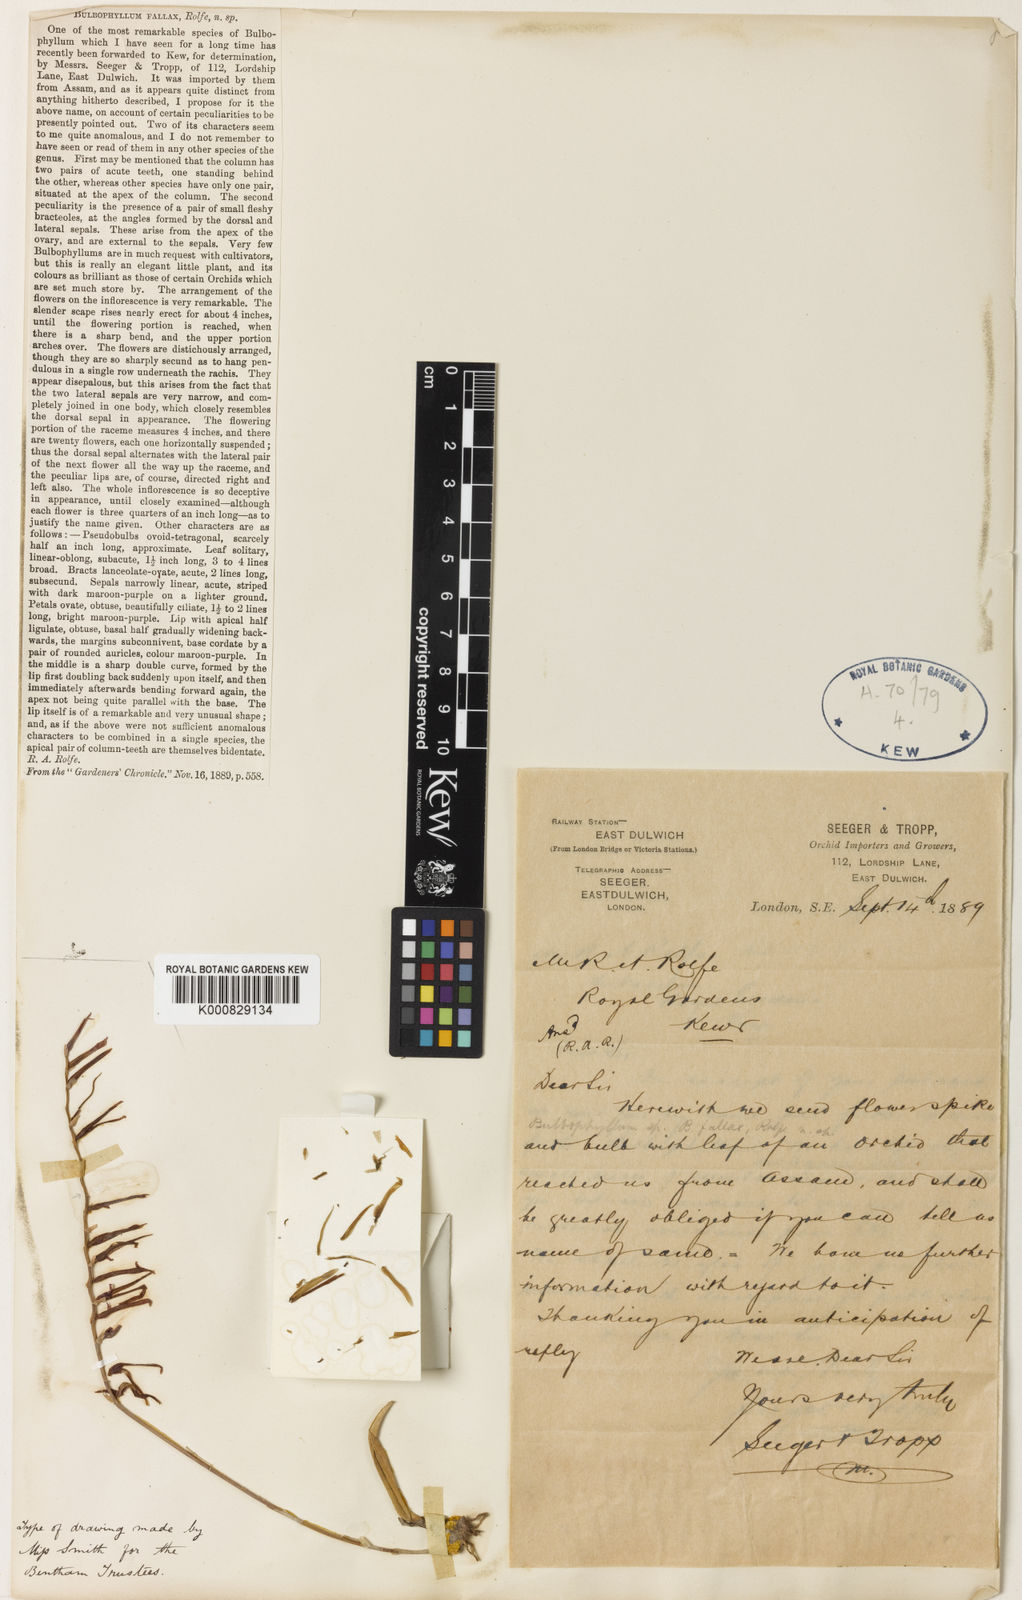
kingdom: Plantae
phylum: Tracheophyta
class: Liliopsida
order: Asparagales
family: Orchidaceae
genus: Bulbophyllum
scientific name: Bulbophyllum fallax
